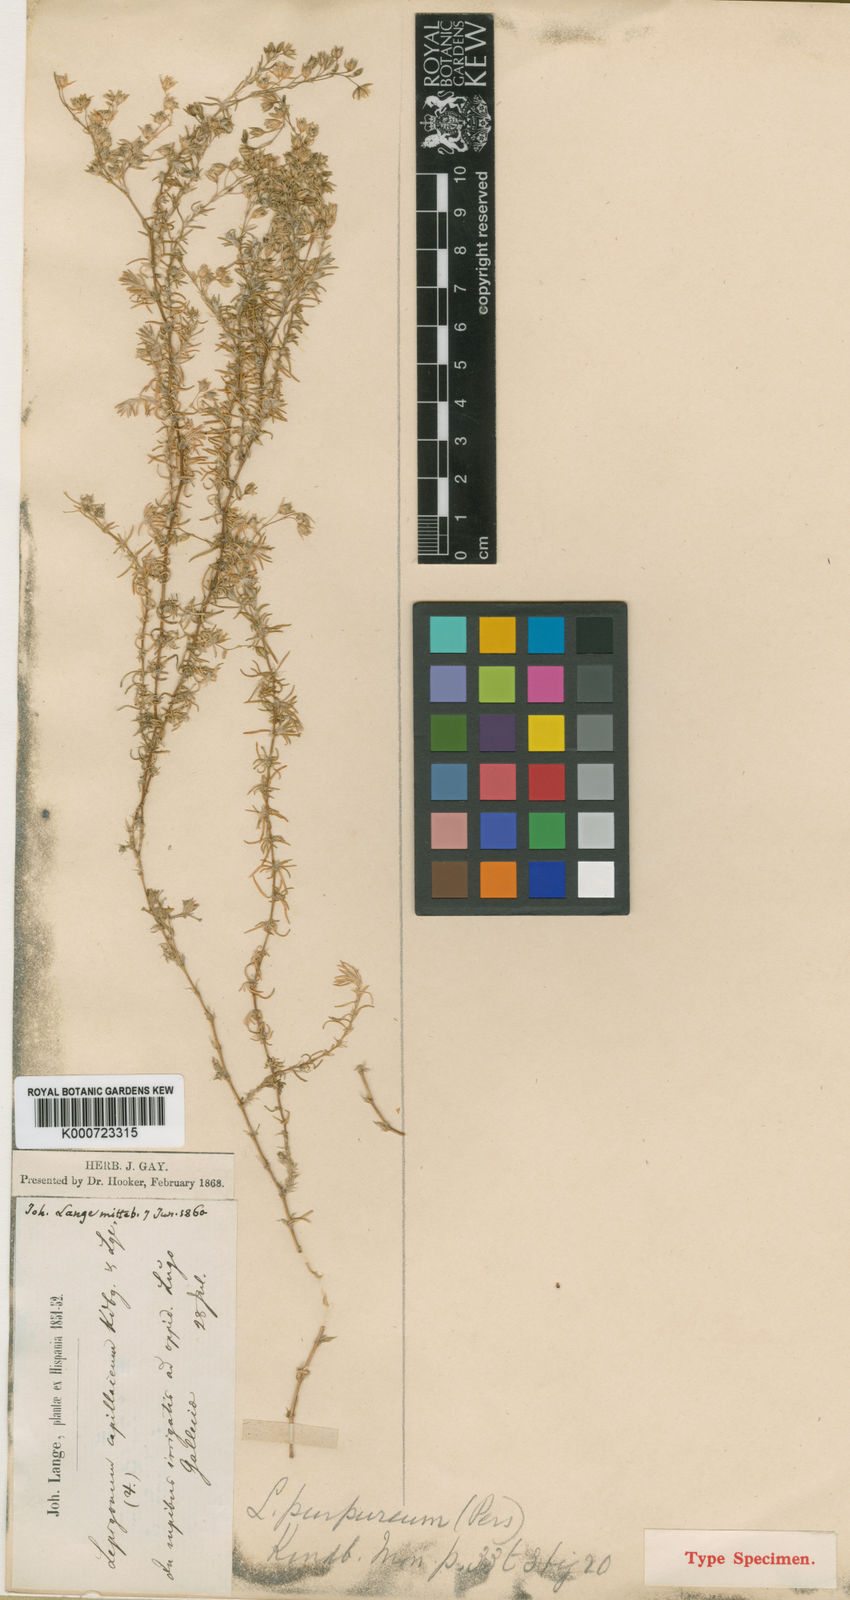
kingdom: Plantae
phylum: Tracheophyta
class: Magnoliopsida
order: Caryophyllales
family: Caryophyllaceae
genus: Spergularia
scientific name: Spergularia capillacea
